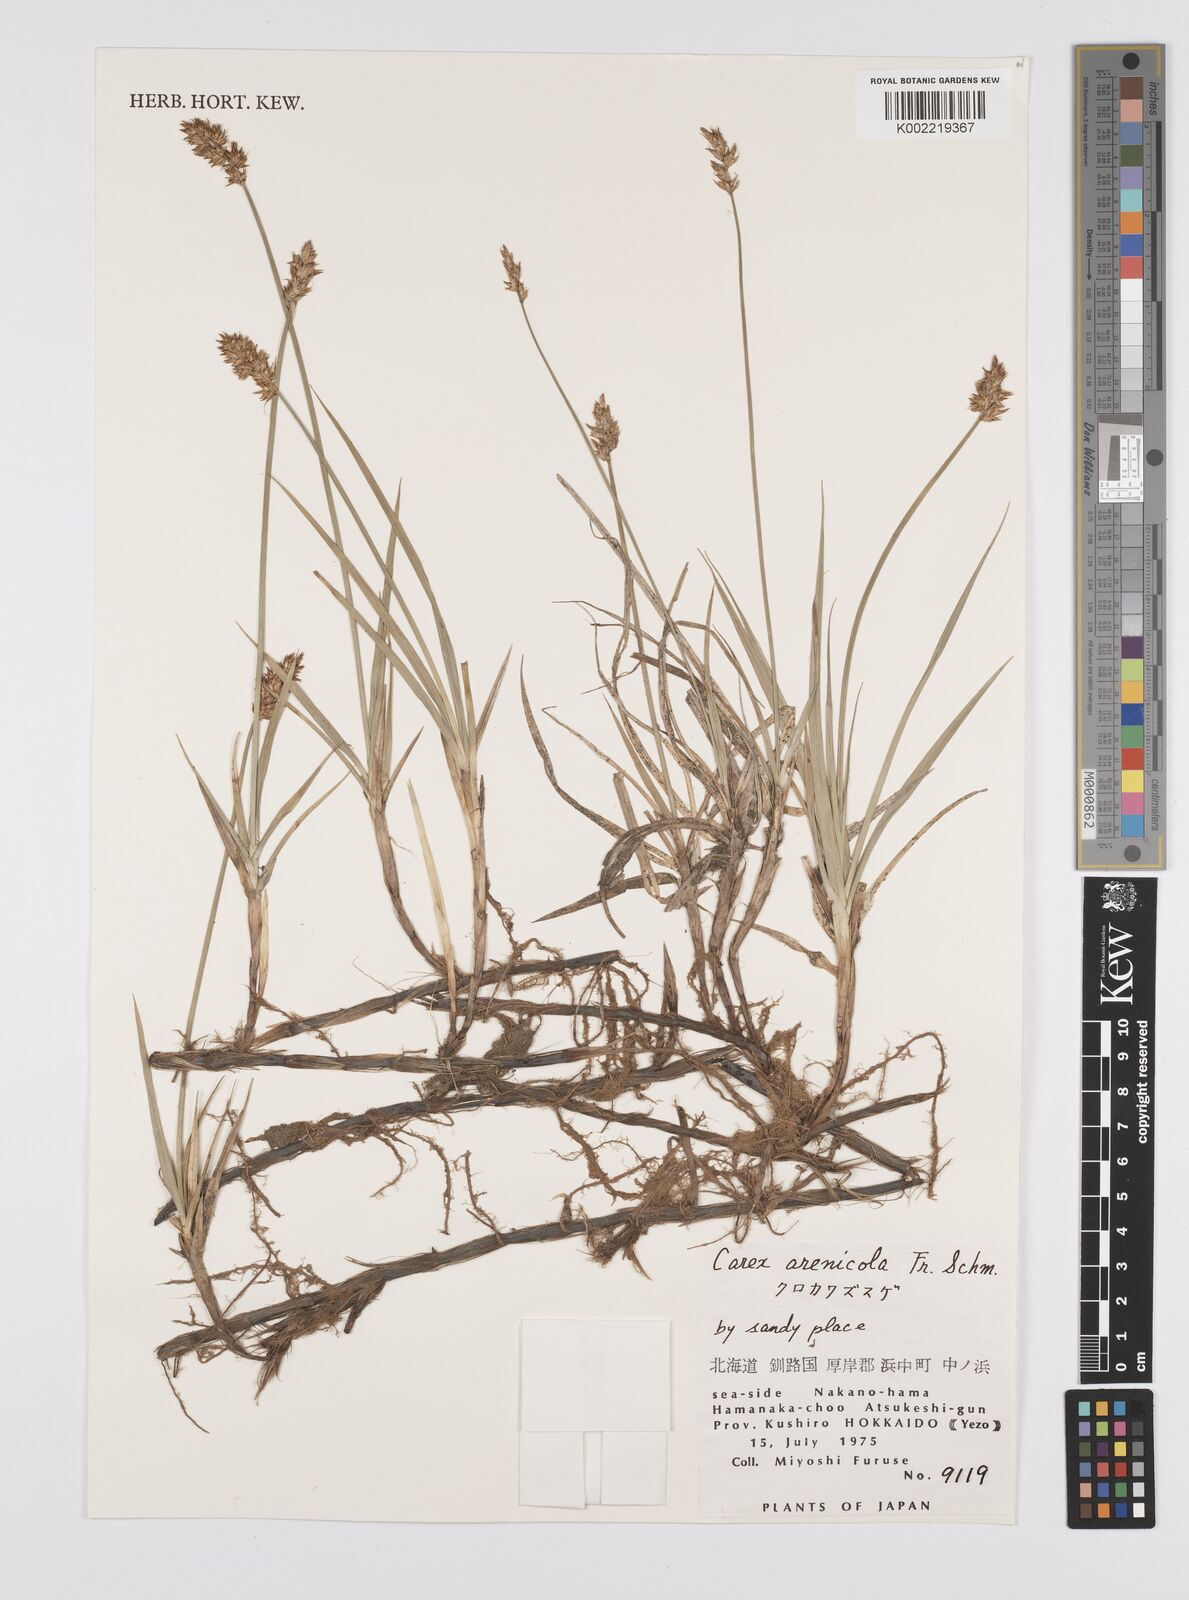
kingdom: Plantae
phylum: Tracheophyta
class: Liliopsida
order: Poales
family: Cyperaceae
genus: Carex
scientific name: Carex arenicola
